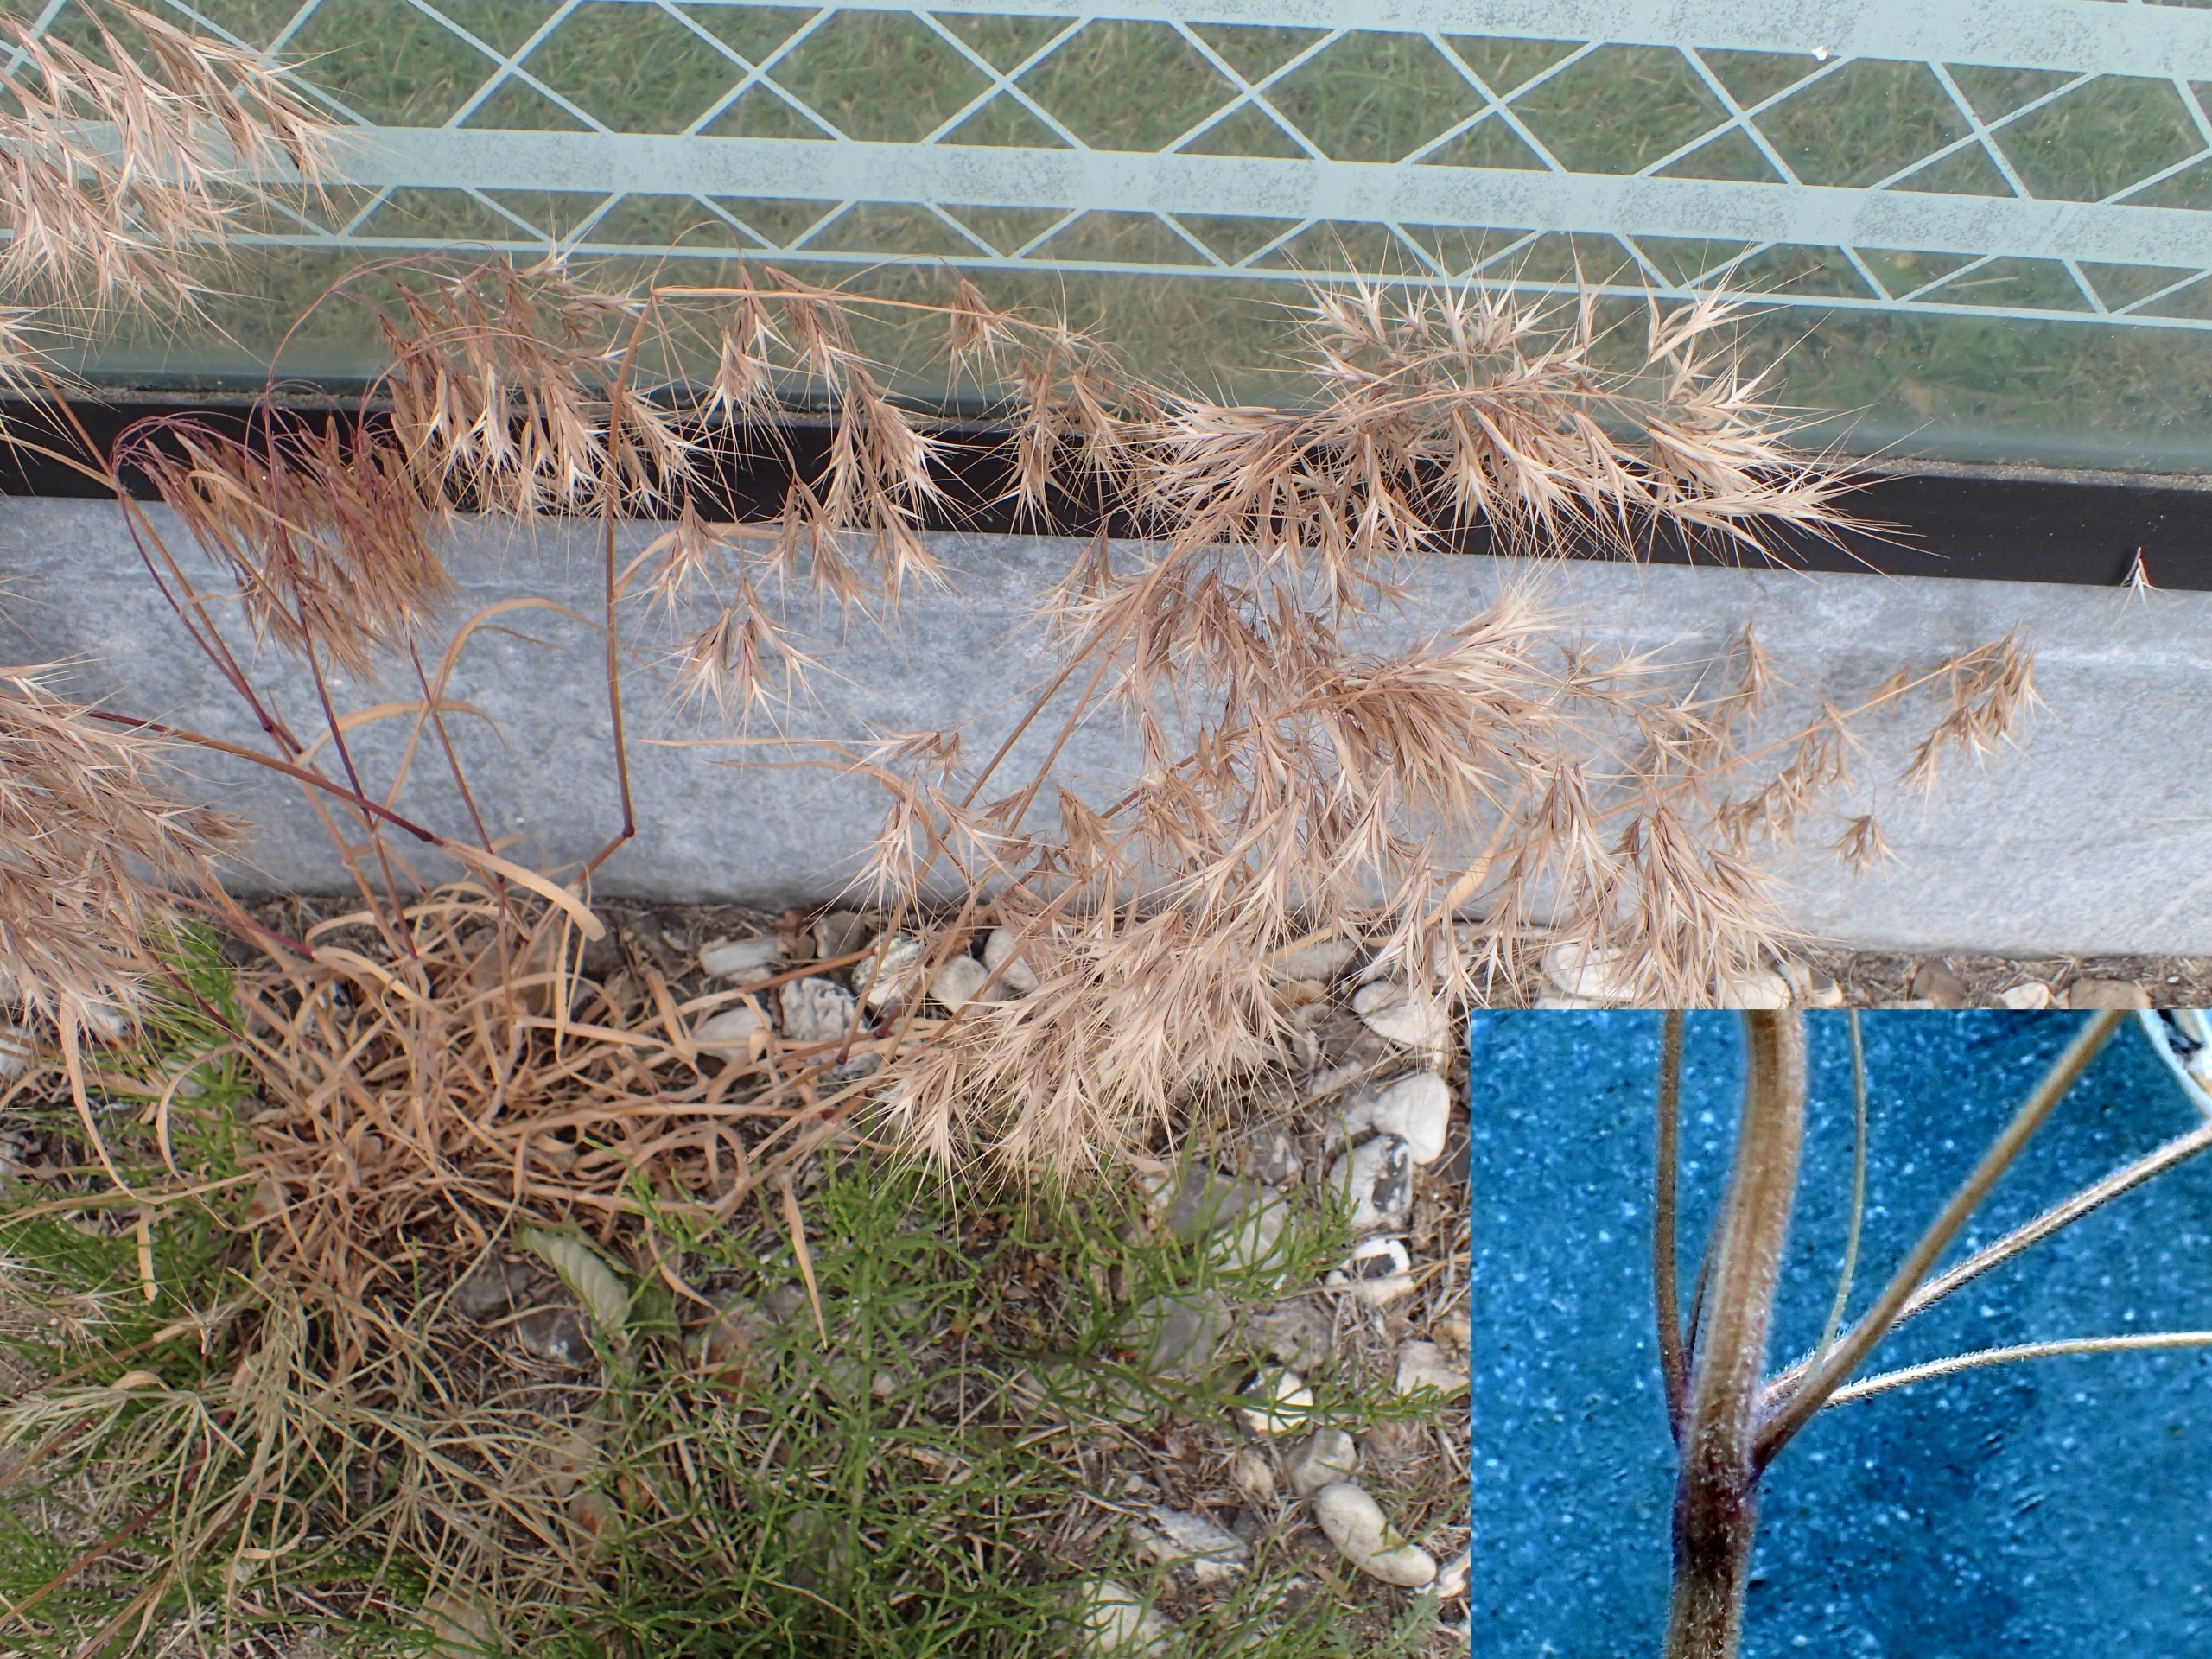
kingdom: Plantae
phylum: Tracheophyta
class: Liliopsida
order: Poales
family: Poaceae
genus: Bromus
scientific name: Bromus tectorum
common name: Tag-hejre
